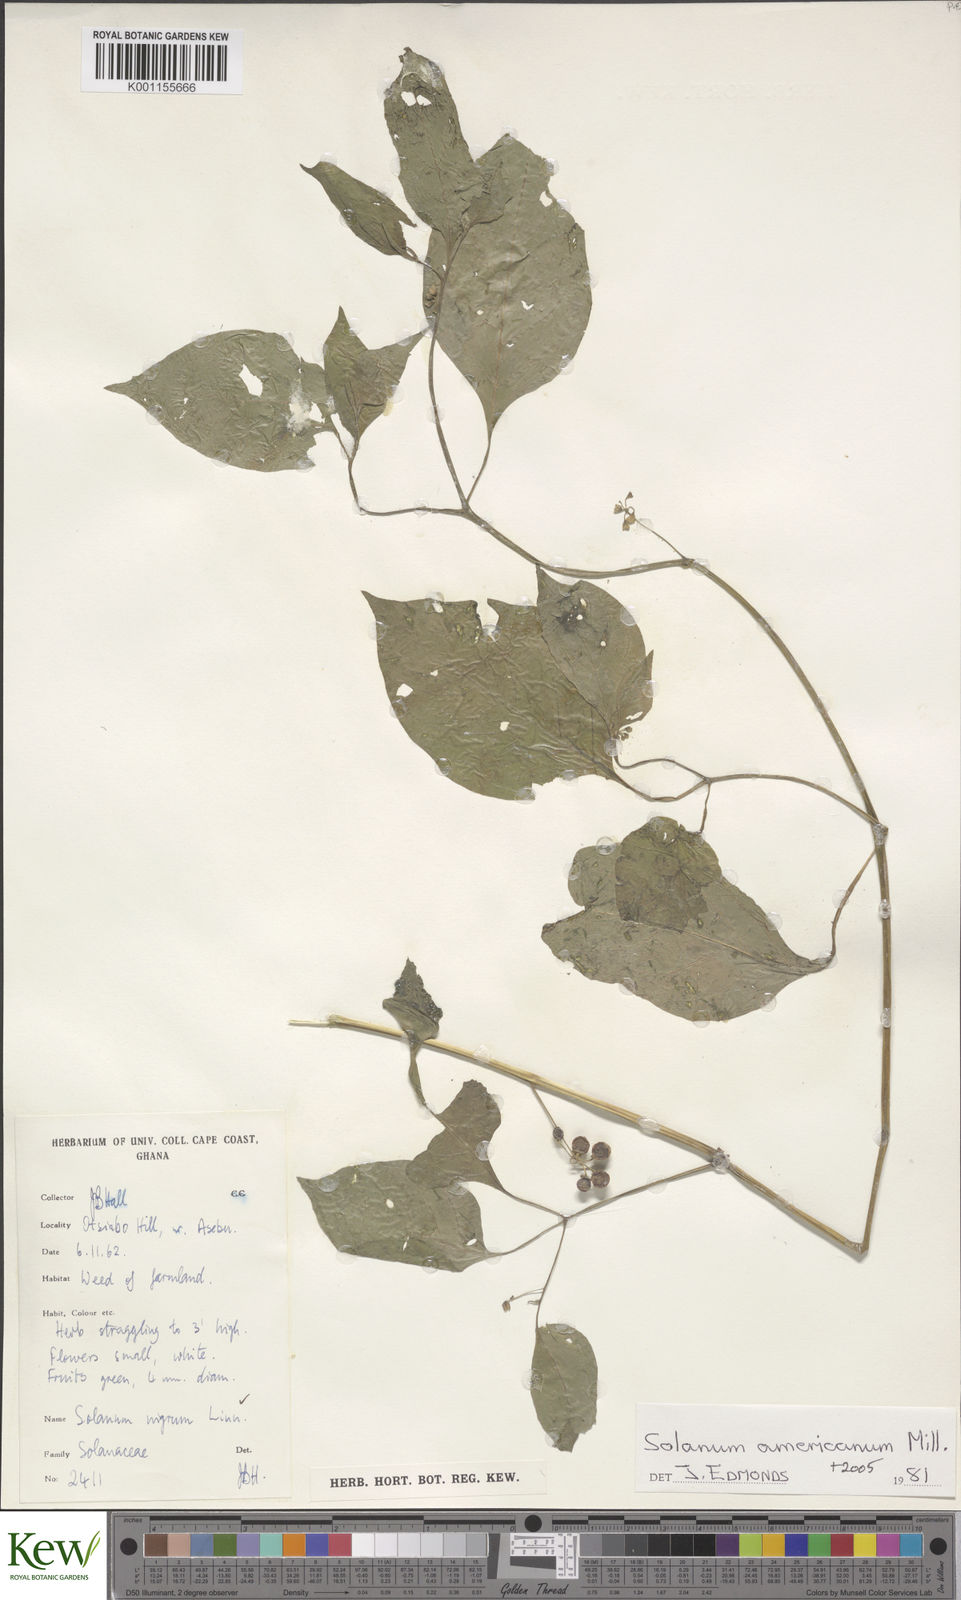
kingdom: Plantae
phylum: Tracheophyta
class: Magnoliopsida
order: Solanales
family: Solanaceae
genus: Solanum
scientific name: Solanum americanum
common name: American black nightshade
